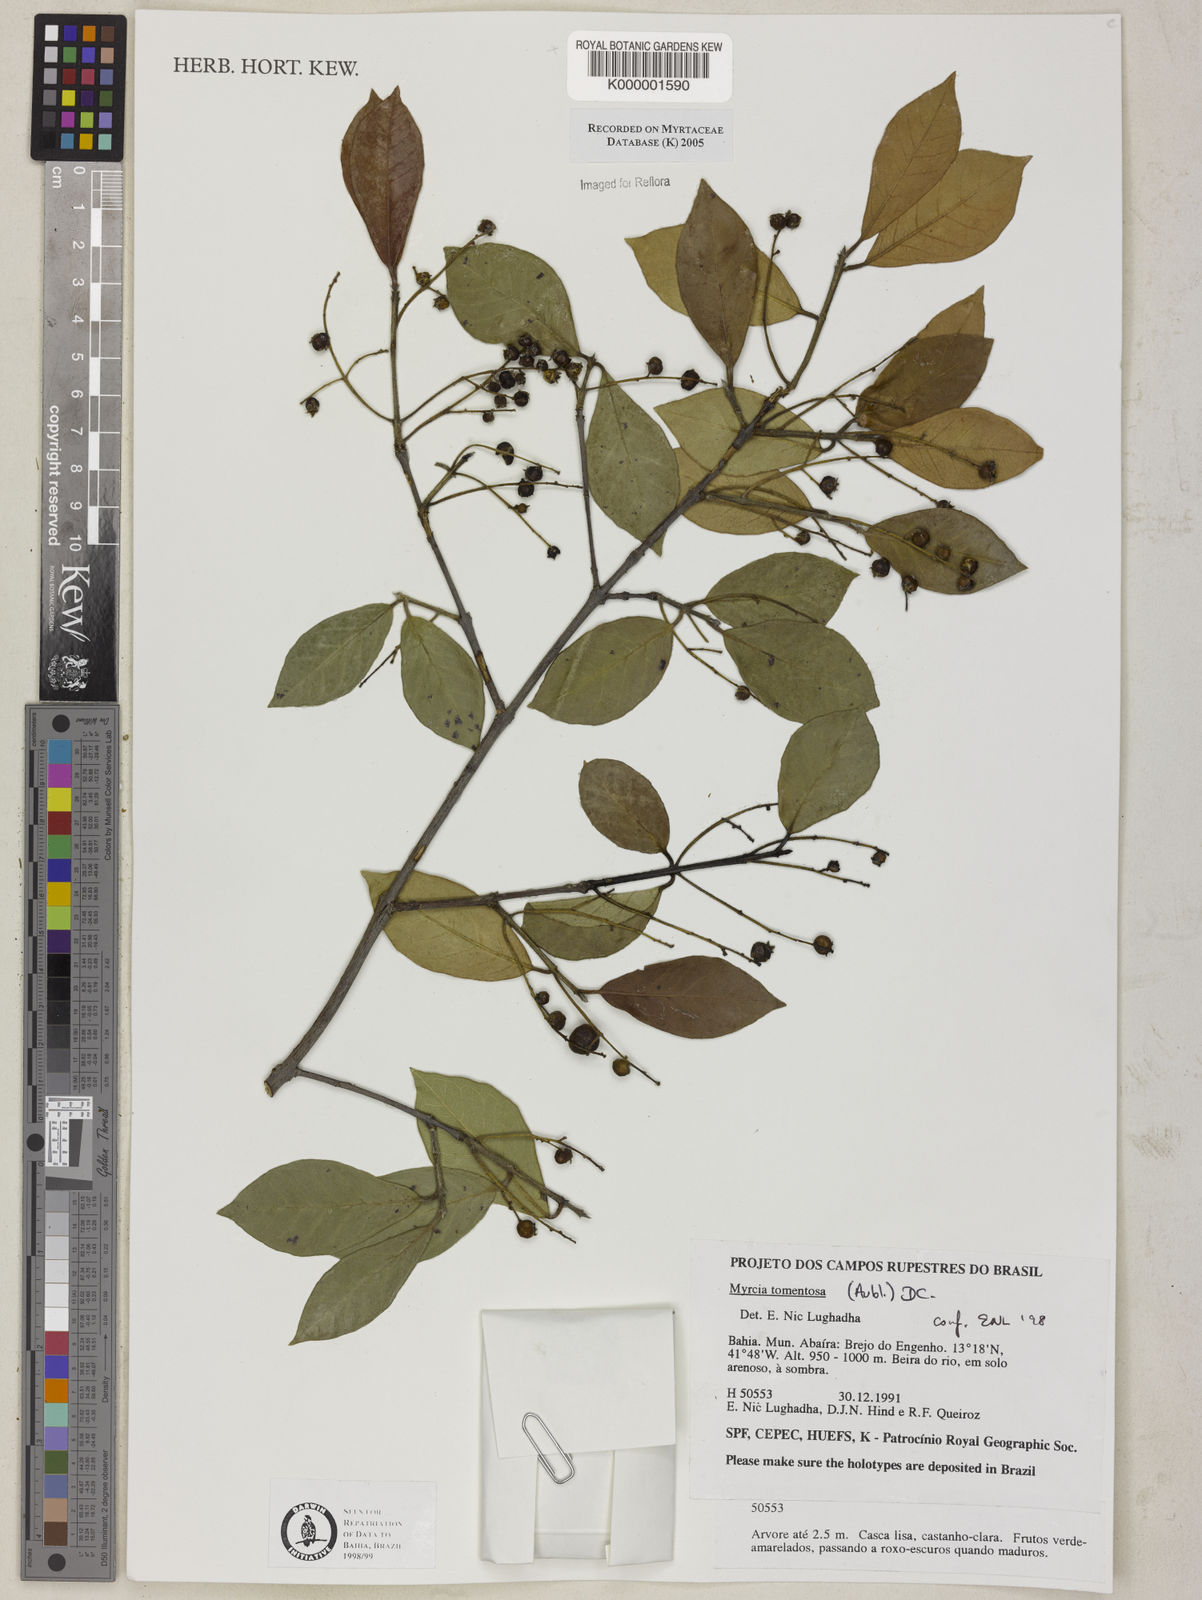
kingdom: Plantae
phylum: Tracheophyta
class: Magnoliopsida
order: Myrtales
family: Myrtaceae
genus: Myrcia
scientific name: Myrcia tomentosa
